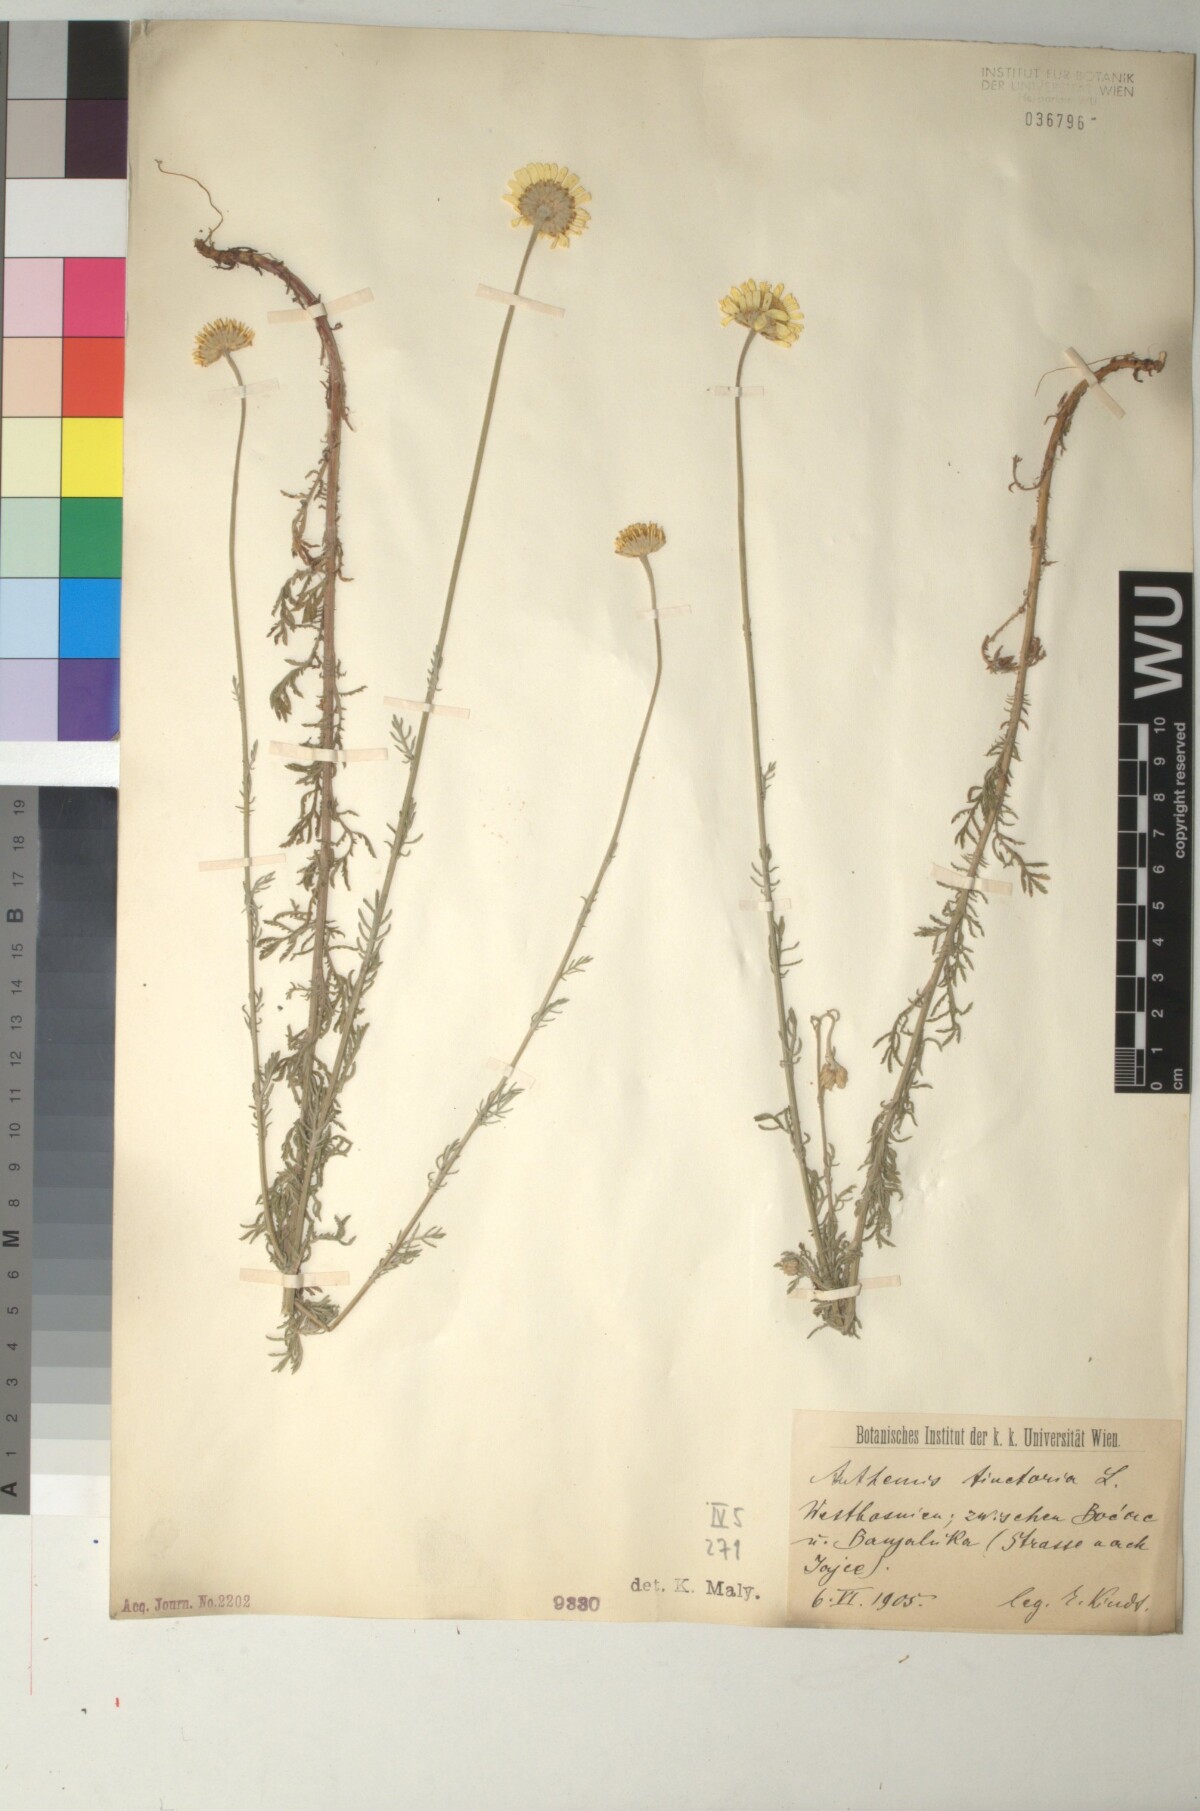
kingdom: Plantae
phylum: Tracheophyta
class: Magnoliopsida
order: Asterales
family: Asteraceae
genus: Cota
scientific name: Cota tinctoria
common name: Golden chamomile
